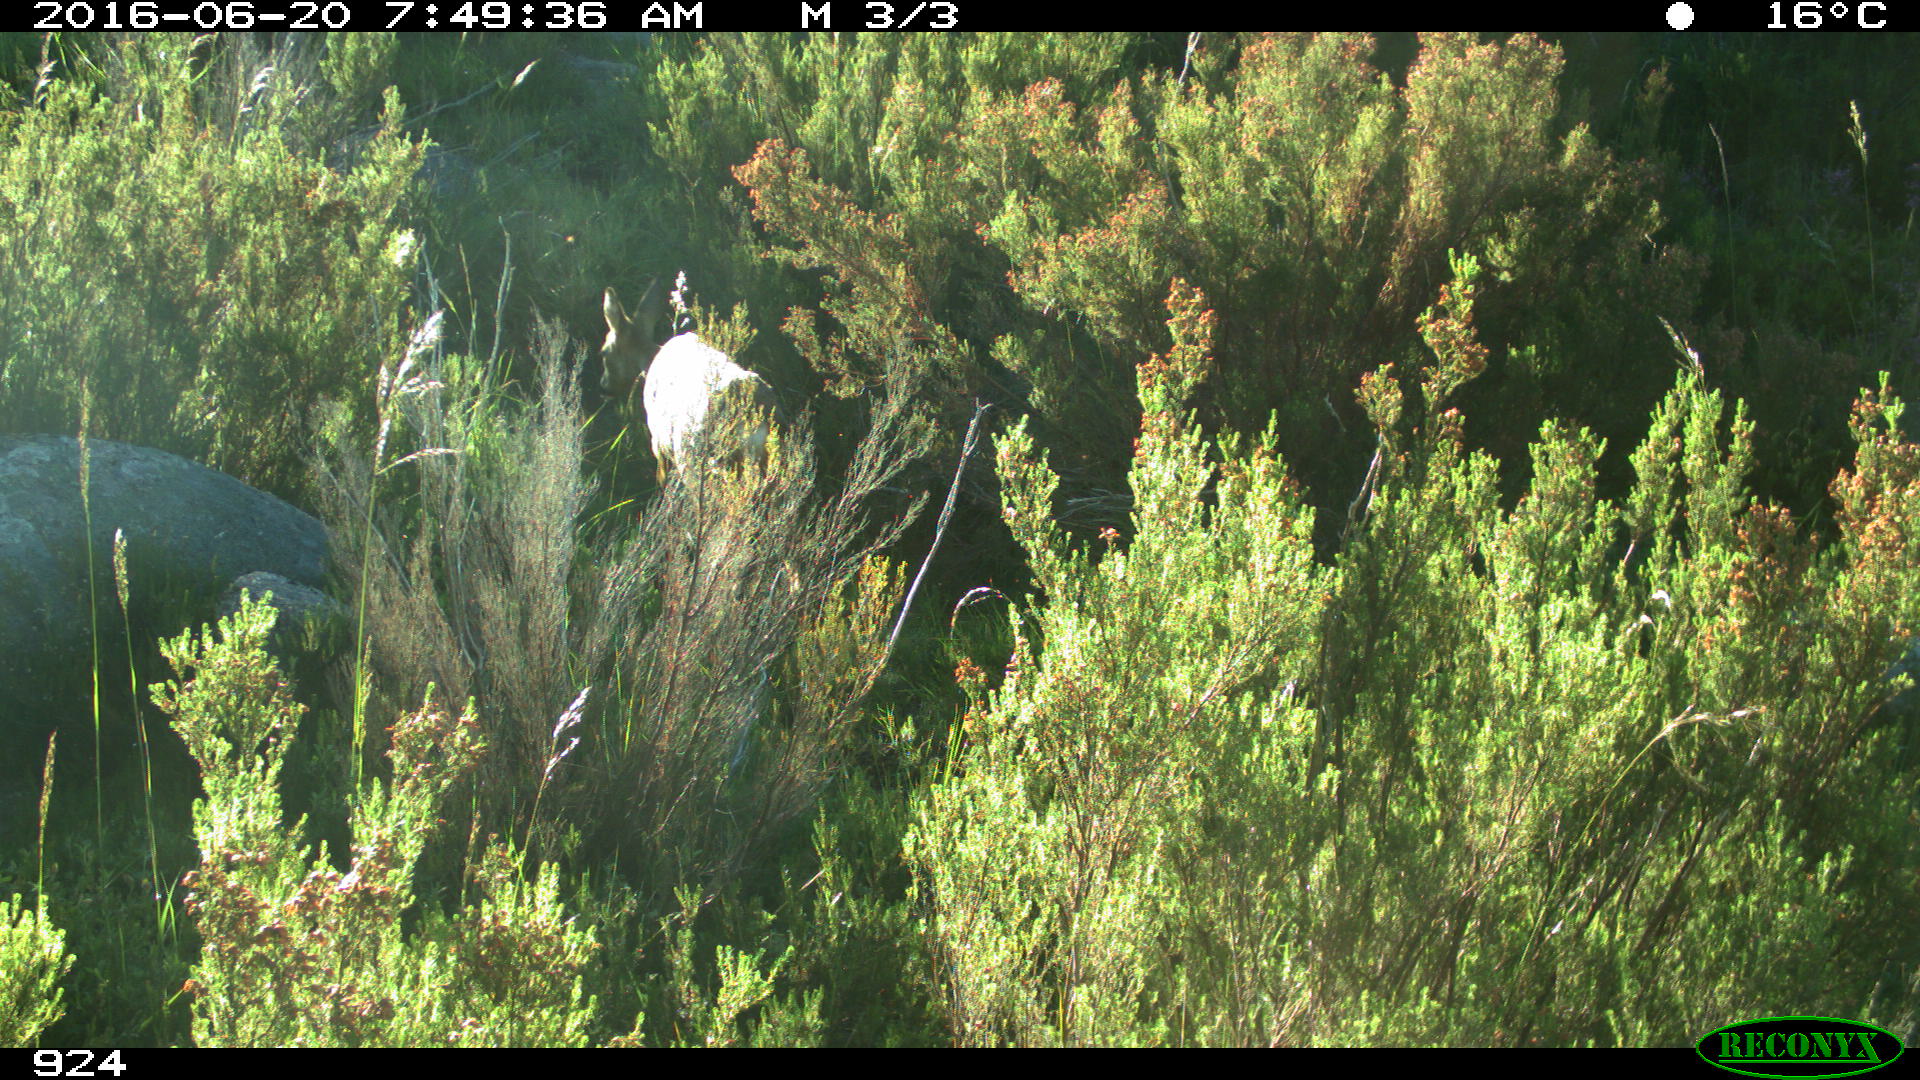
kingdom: Animalia
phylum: Chordata
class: Mammalia
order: Artiodactyla
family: Cervidae
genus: Capreolus
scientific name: Capreolus capreolus
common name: Western roe deer
